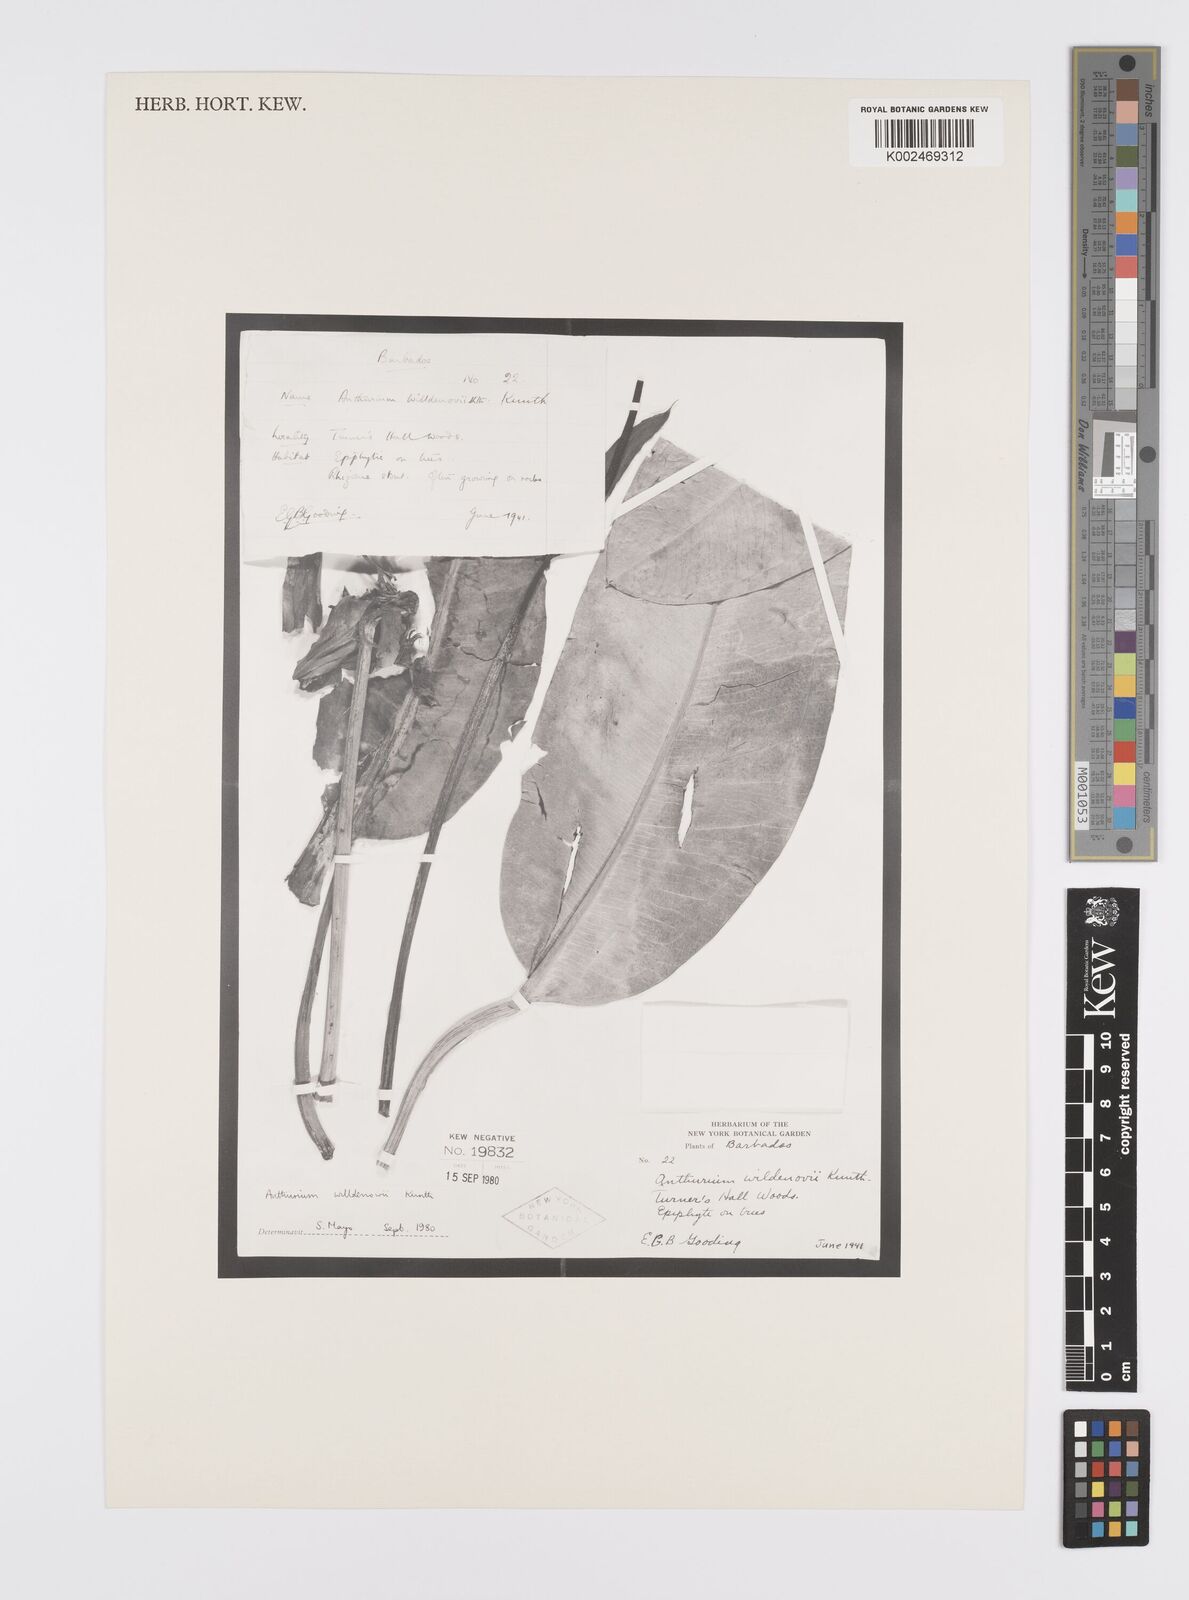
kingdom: Plantae
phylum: Tracheophyta
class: Liliopsida
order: Alismatales
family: Araceae
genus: Anthurium
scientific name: Anthurium willdenowii
